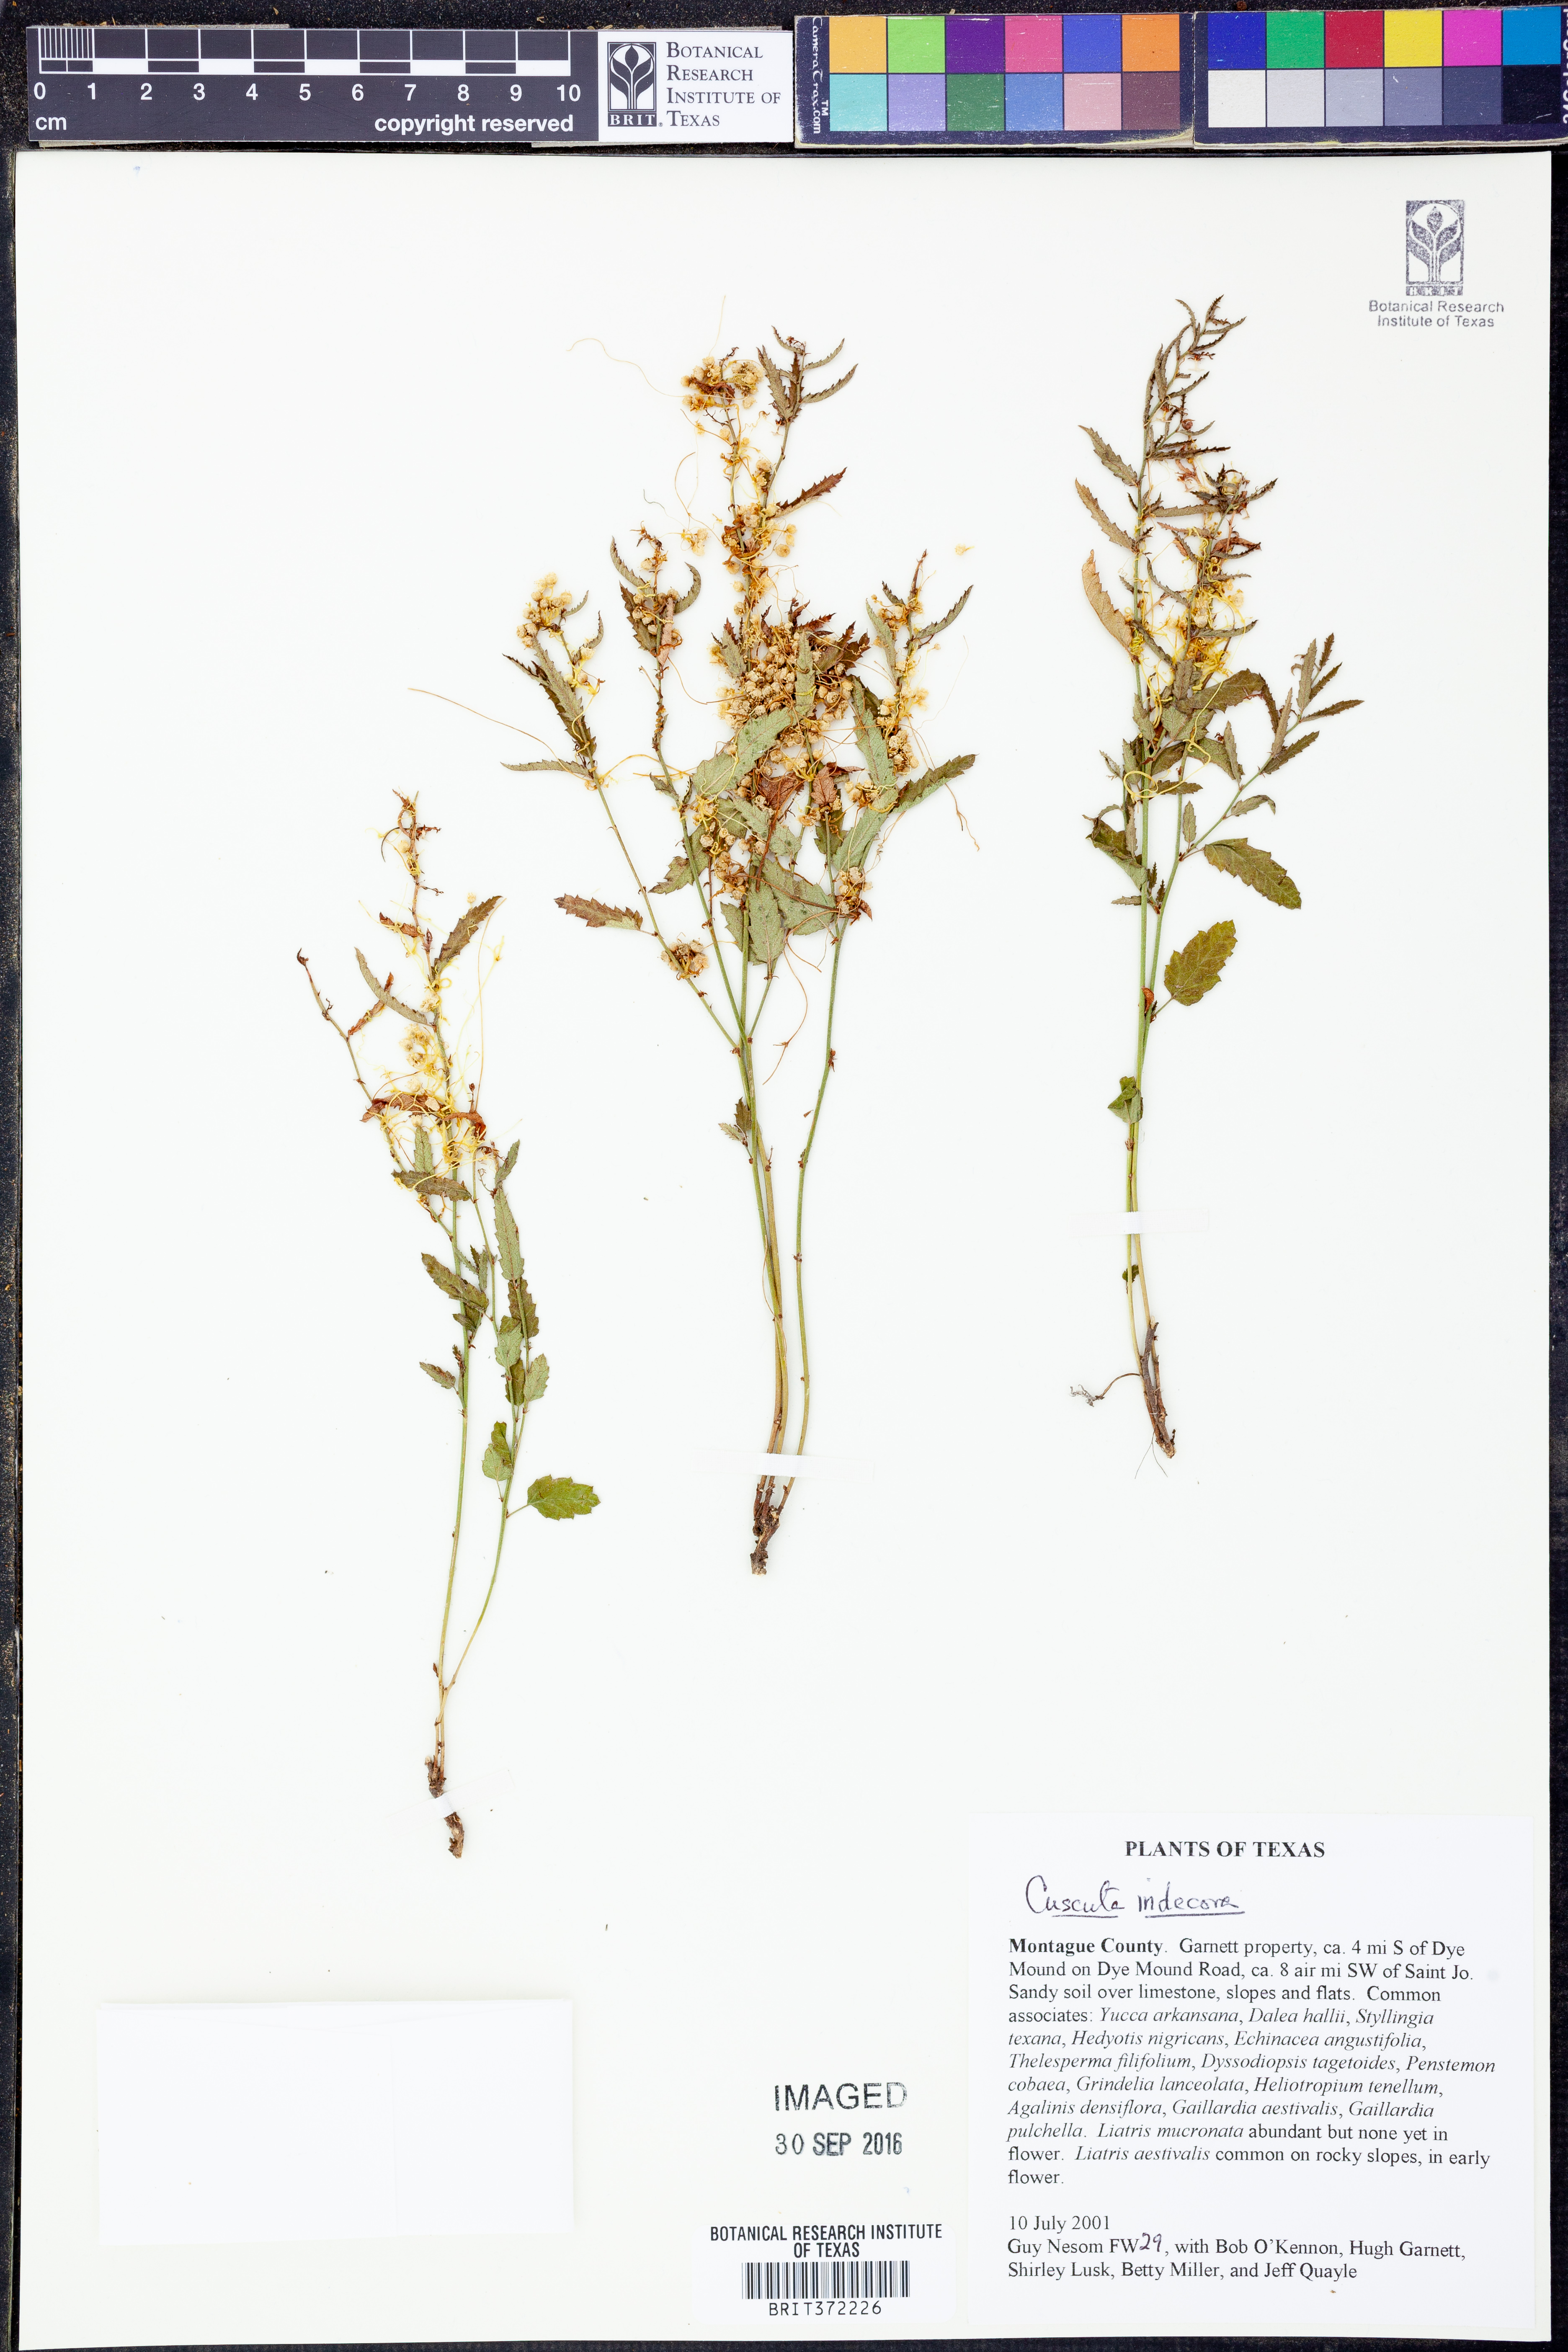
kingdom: Plantae
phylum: Tracheophyta
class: Magnoliopsida
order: Solanales
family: Convolvulaceae
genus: Cuscuta
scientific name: Cuscuta indecora
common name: Large-seed dodder
